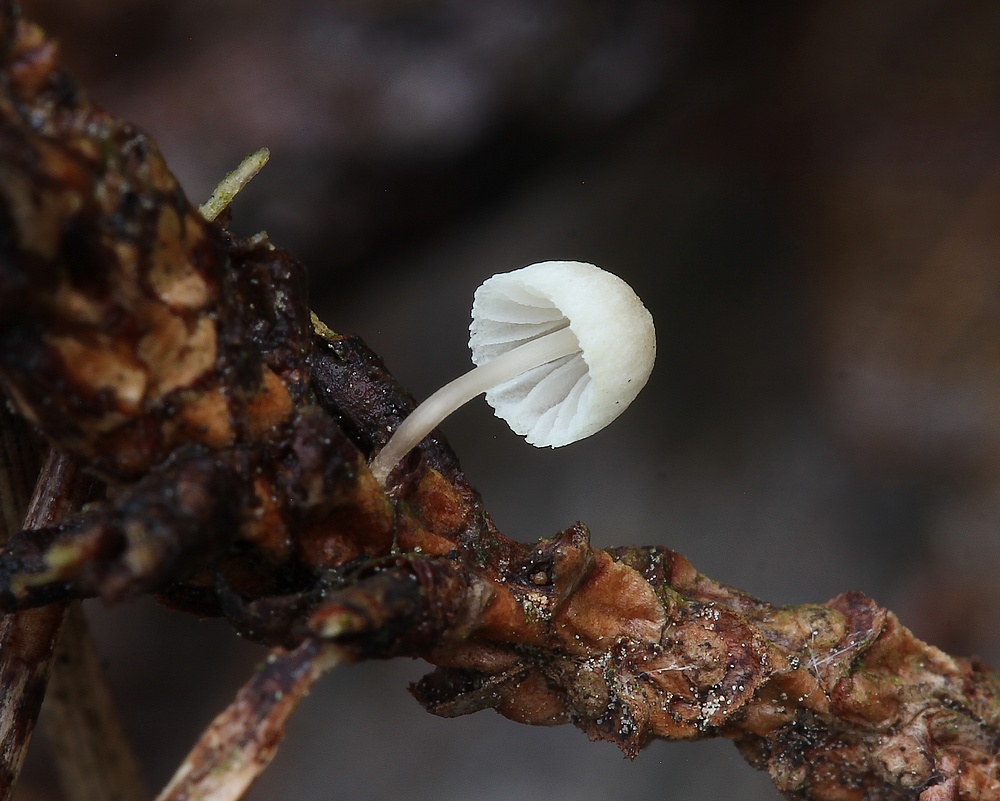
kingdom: Fungi
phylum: Basidiomycota
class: Agaricomycetes
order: Agaricales
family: Mycenaceae
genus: Mycena
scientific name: Mycena arcangeliana
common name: oliven-huesvamp
